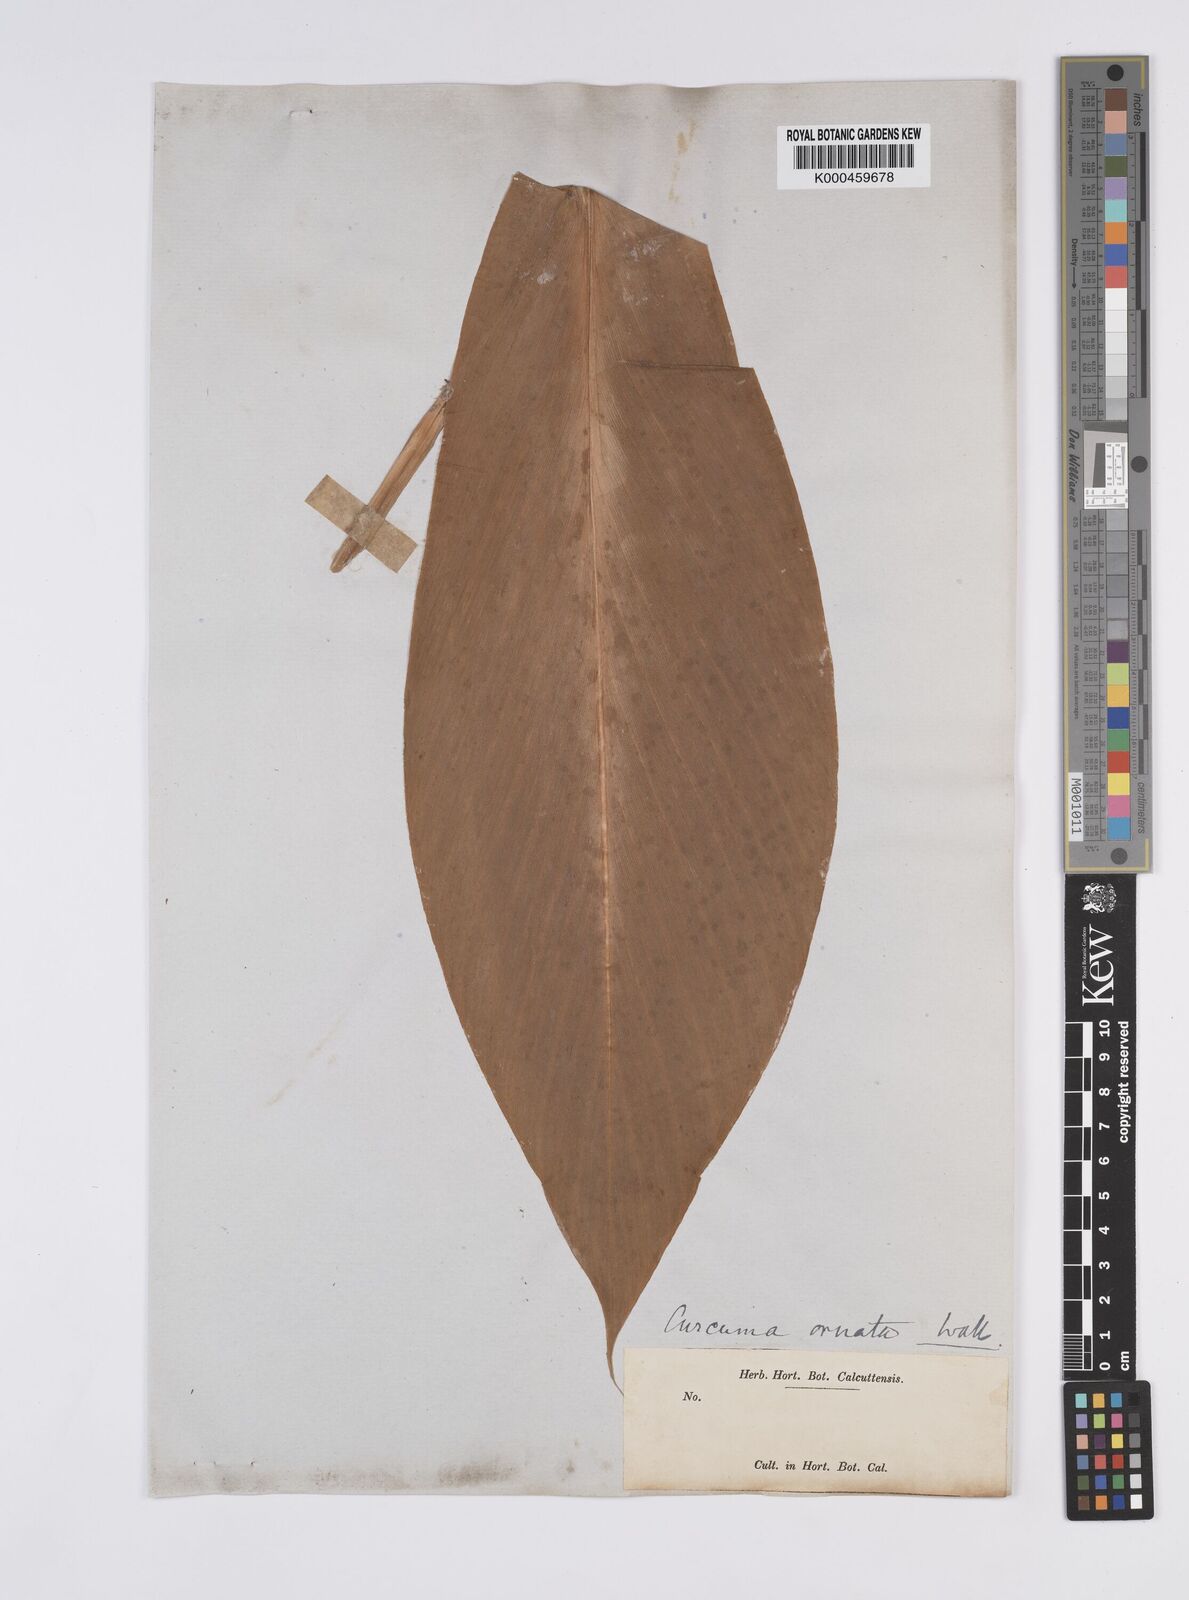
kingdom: Plantae
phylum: Tracheophyta
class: Liliopsida
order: Zingiberales
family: Zingiberaceae
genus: Curcuma
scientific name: Curcuma ornata
